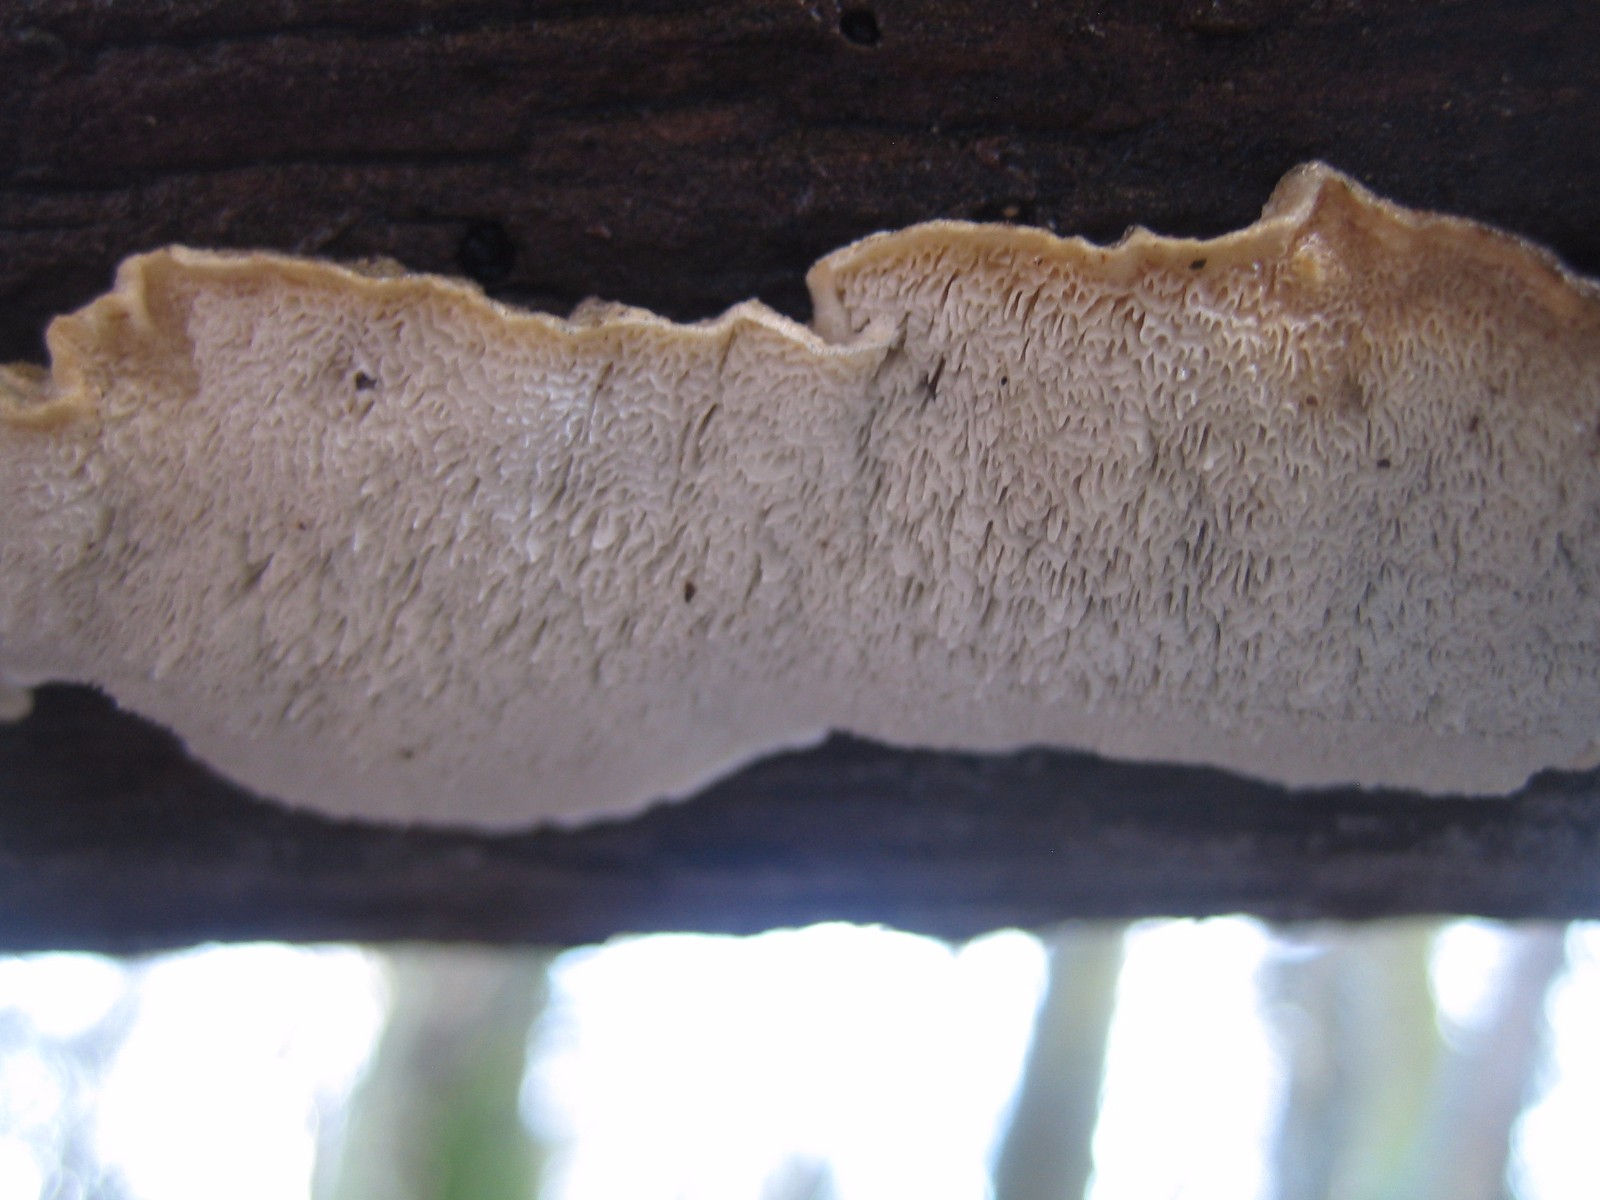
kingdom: Fungi
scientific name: Fungi
